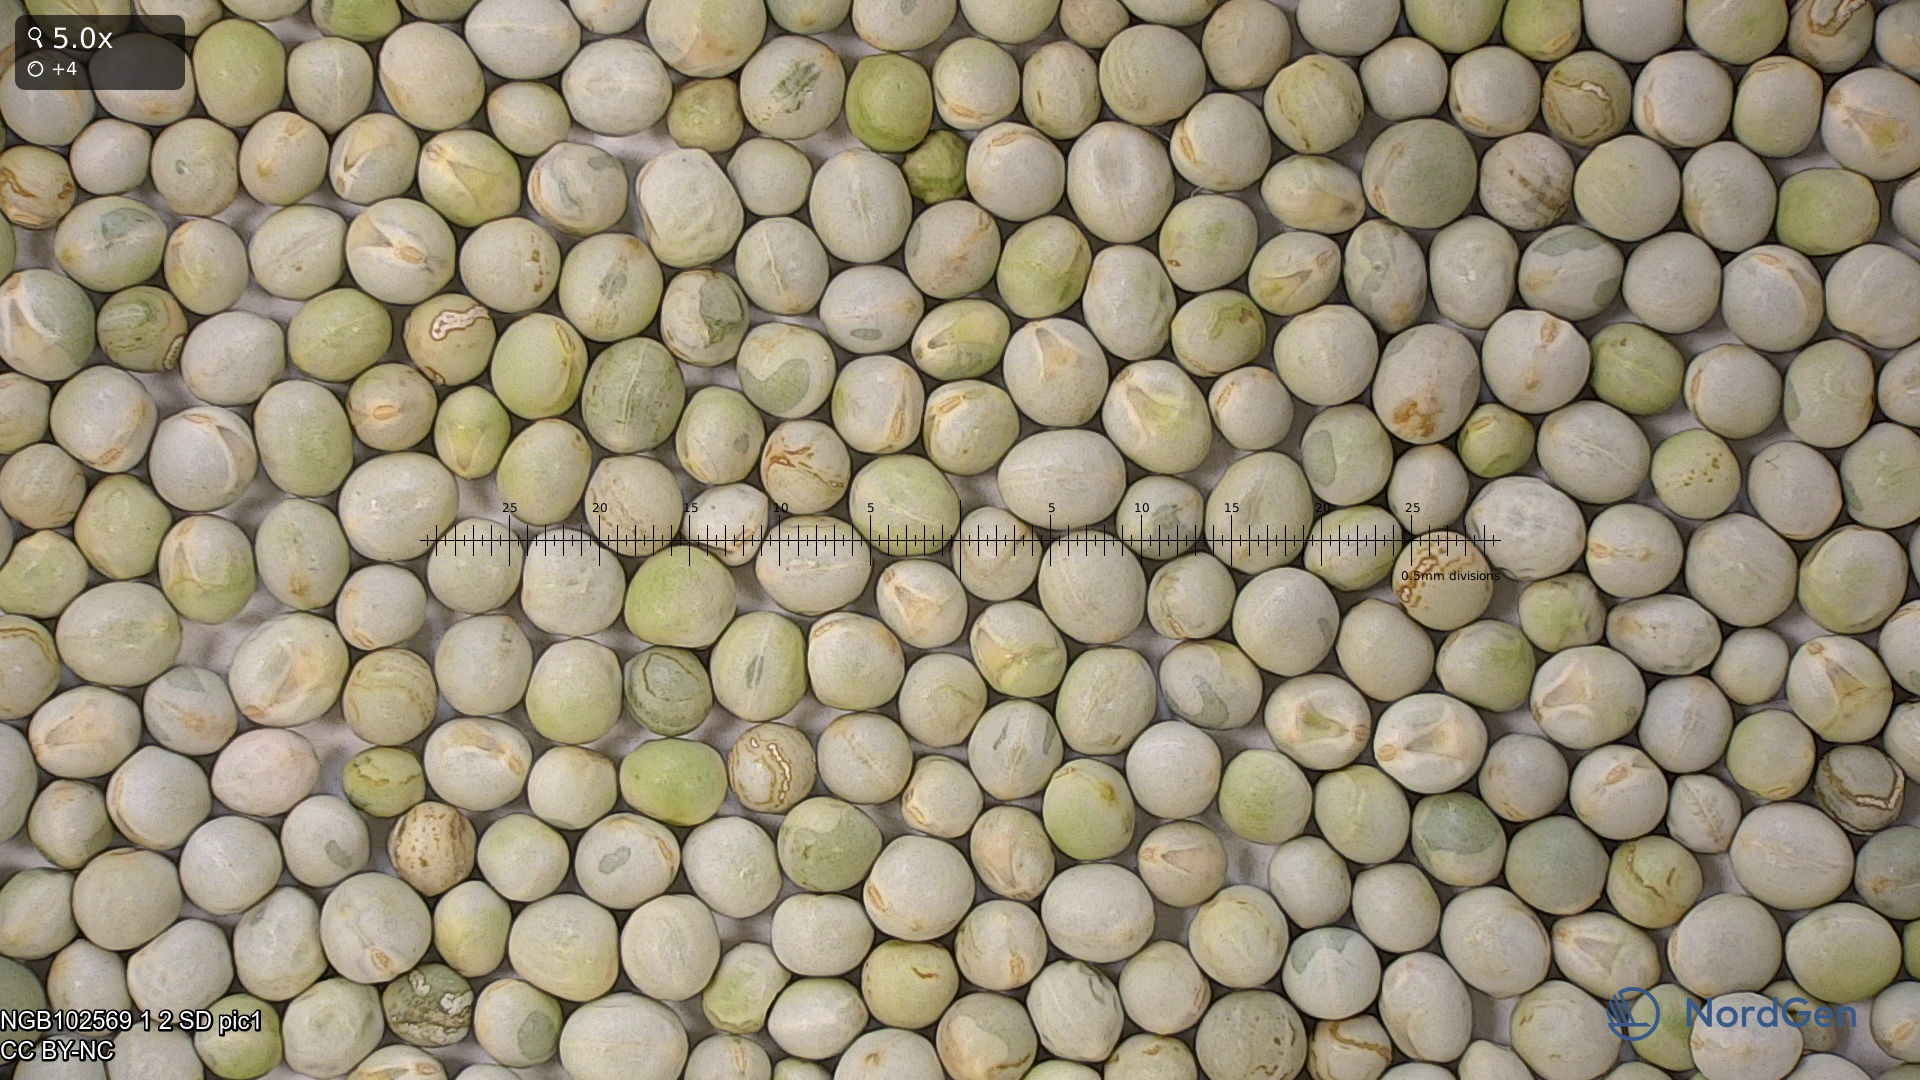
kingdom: Plantae
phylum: Tracheophyta
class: Magnoliopsida
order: Fabales
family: Fabaceae
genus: Lathyrus
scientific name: Lathyrus oleraceus
